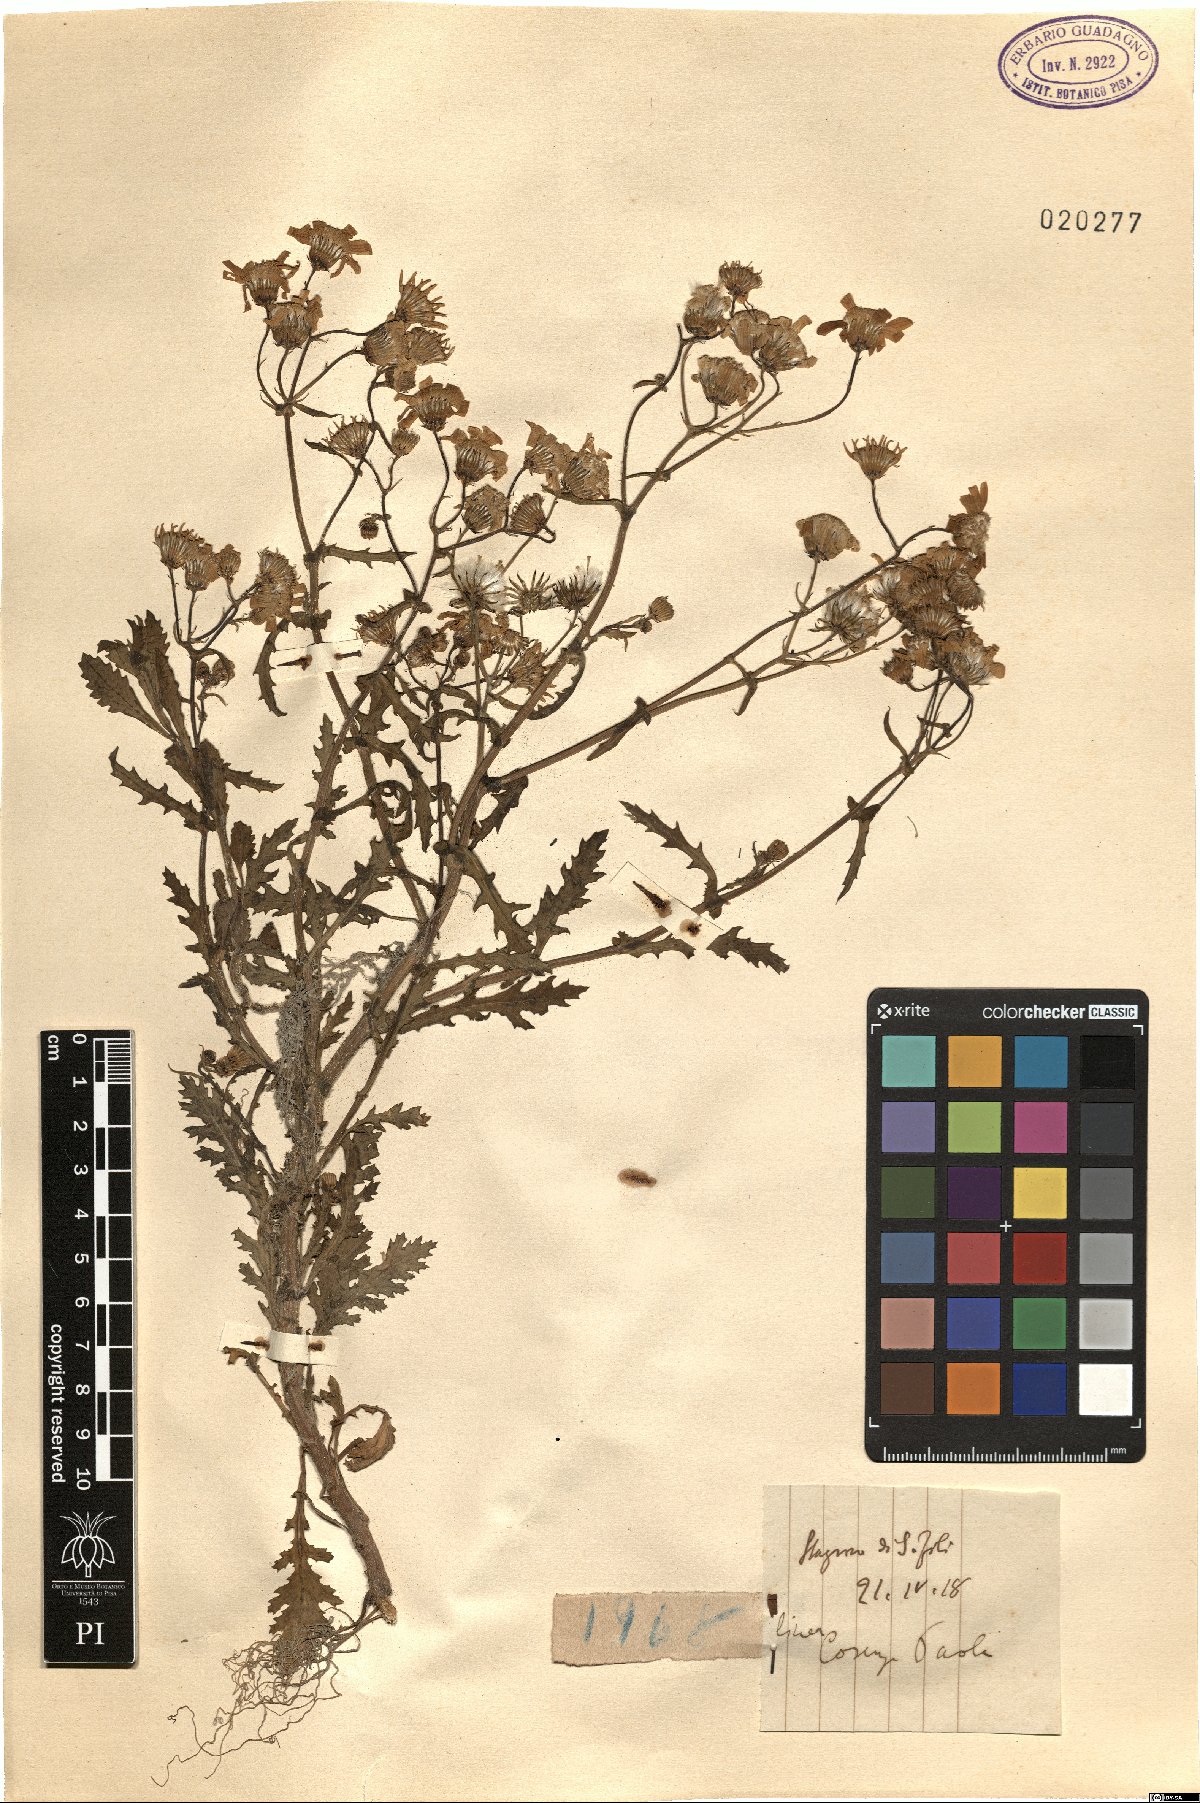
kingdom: Plantae
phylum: Tracheophyta
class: Magnoliopsida
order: Asterales
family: Asteraceae
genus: Senecio
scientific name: Senecio
